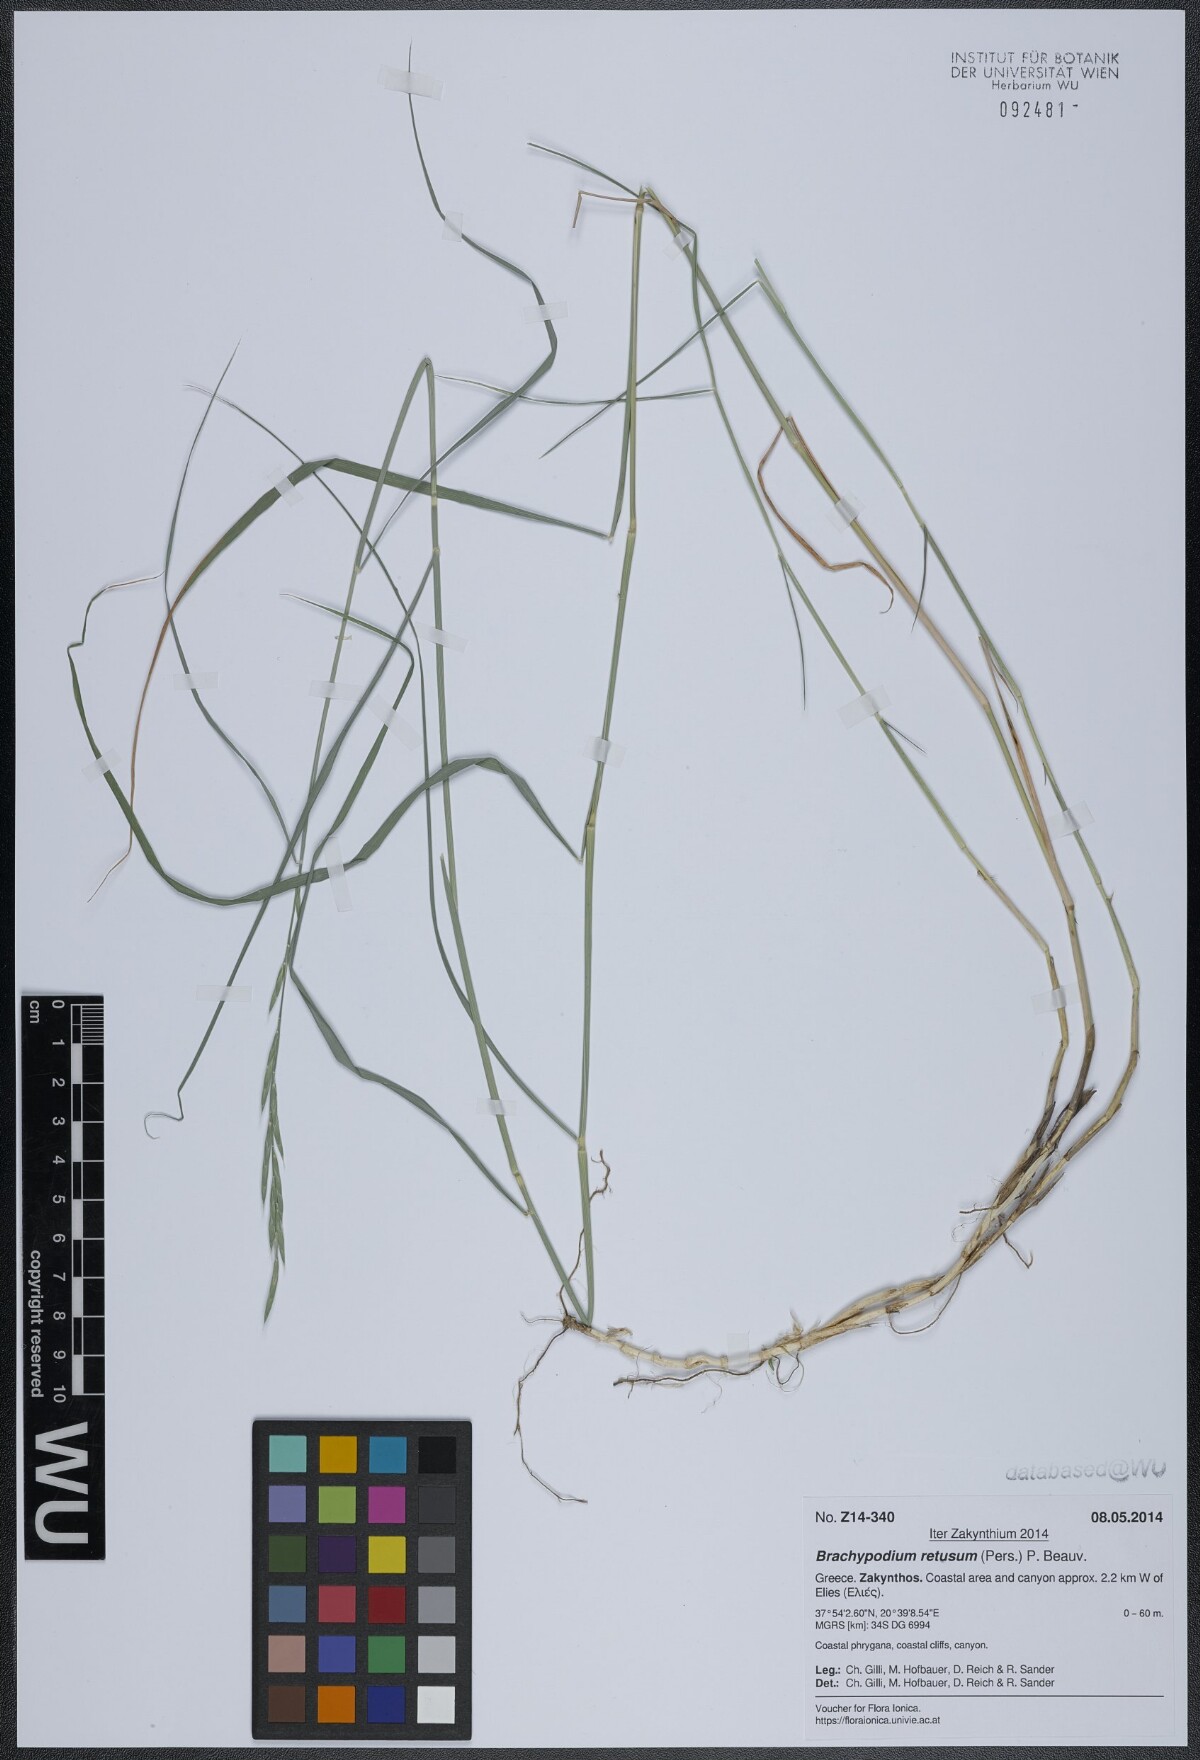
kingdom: Plantae
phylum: Tracheophyta
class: Liliopsida
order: Poales
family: Poaceae
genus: Brachypodium
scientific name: Brachypodium retusum
